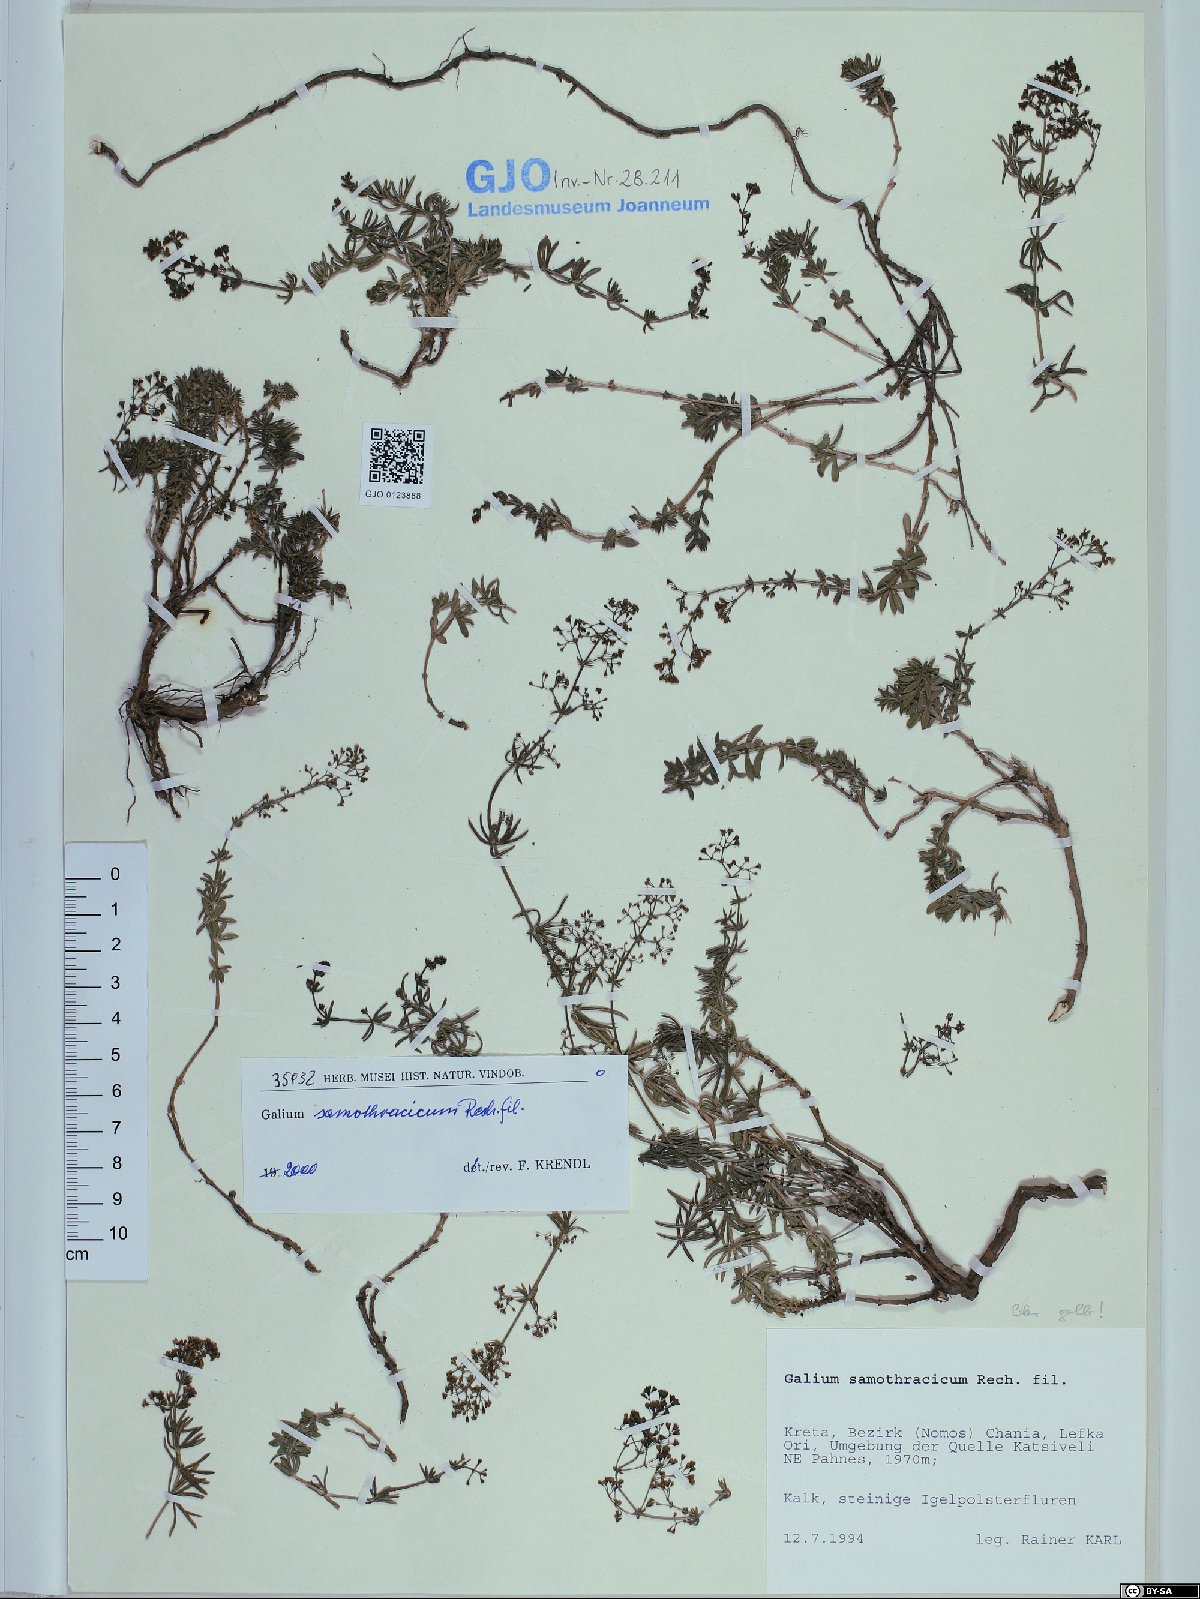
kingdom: Plantae
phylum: Tracheophyta
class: Magnoliopsida
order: Gentianales
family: Rubiaceae
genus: Galium
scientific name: Galium samothracicum
